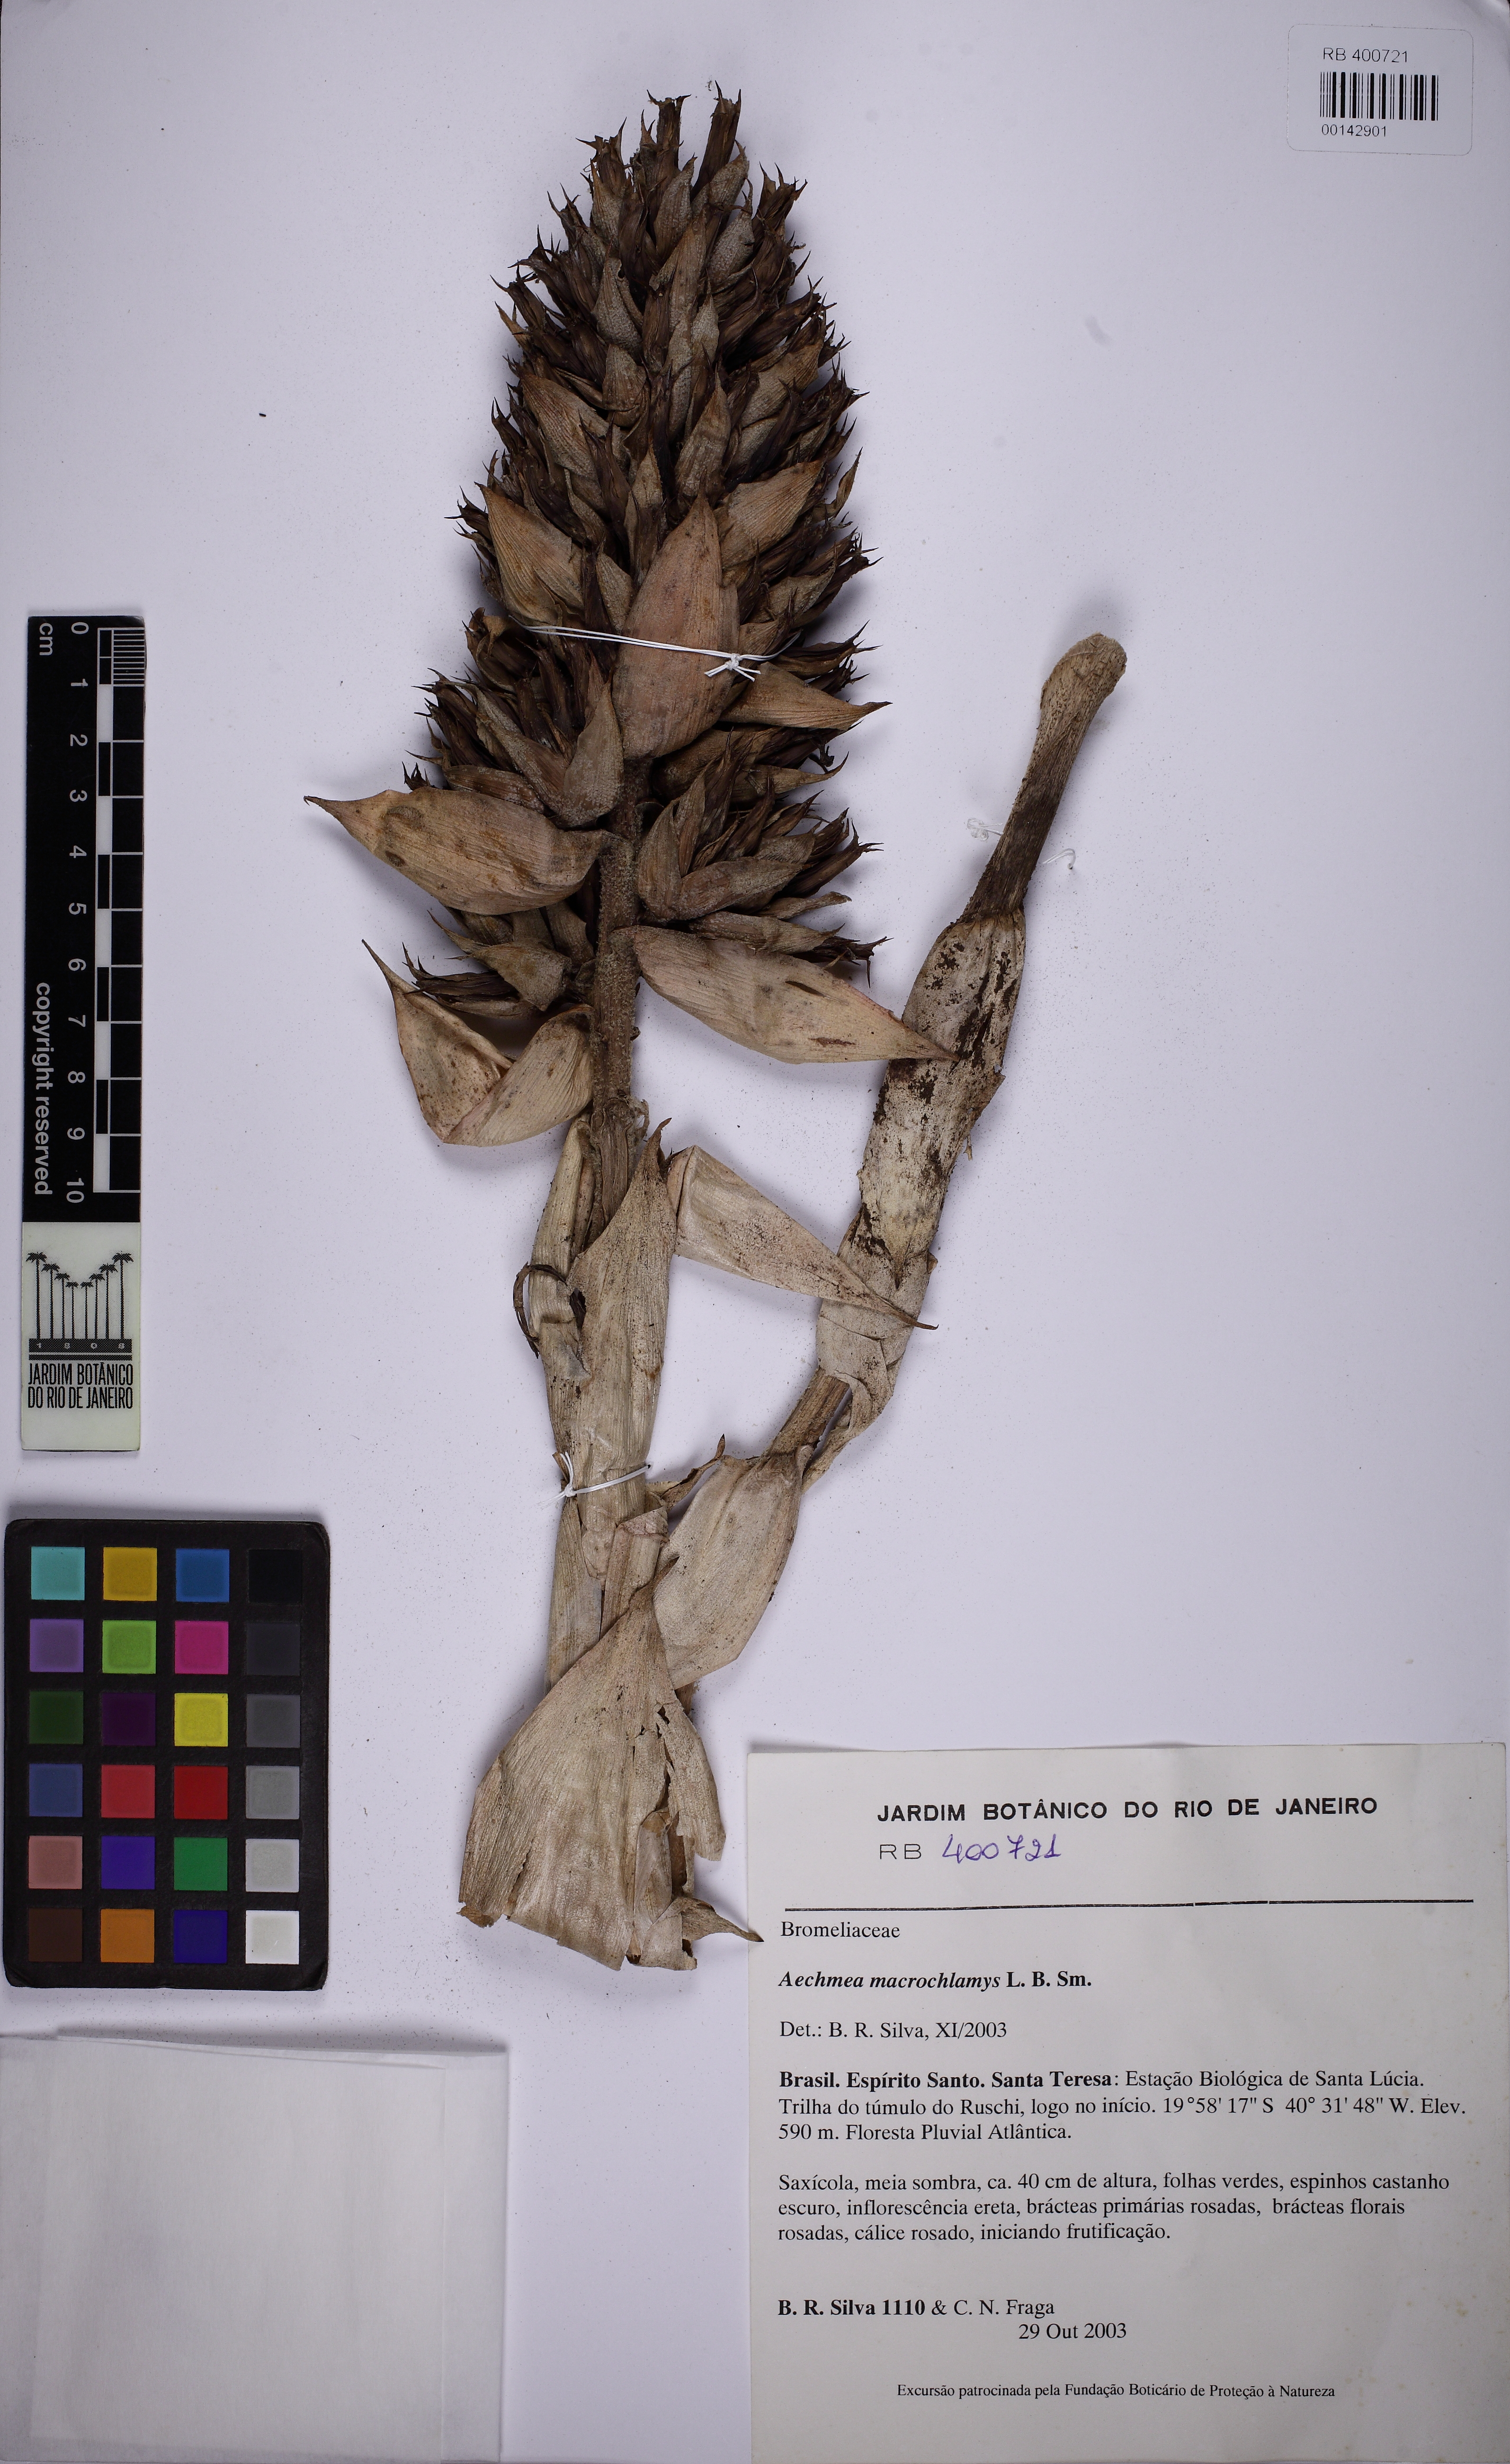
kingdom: Plantae
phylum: Tracheophyta
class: Liliopsida
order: Poales
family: Bromeliaceae
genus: Aechmea
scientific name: Aechmea macrochlamys
